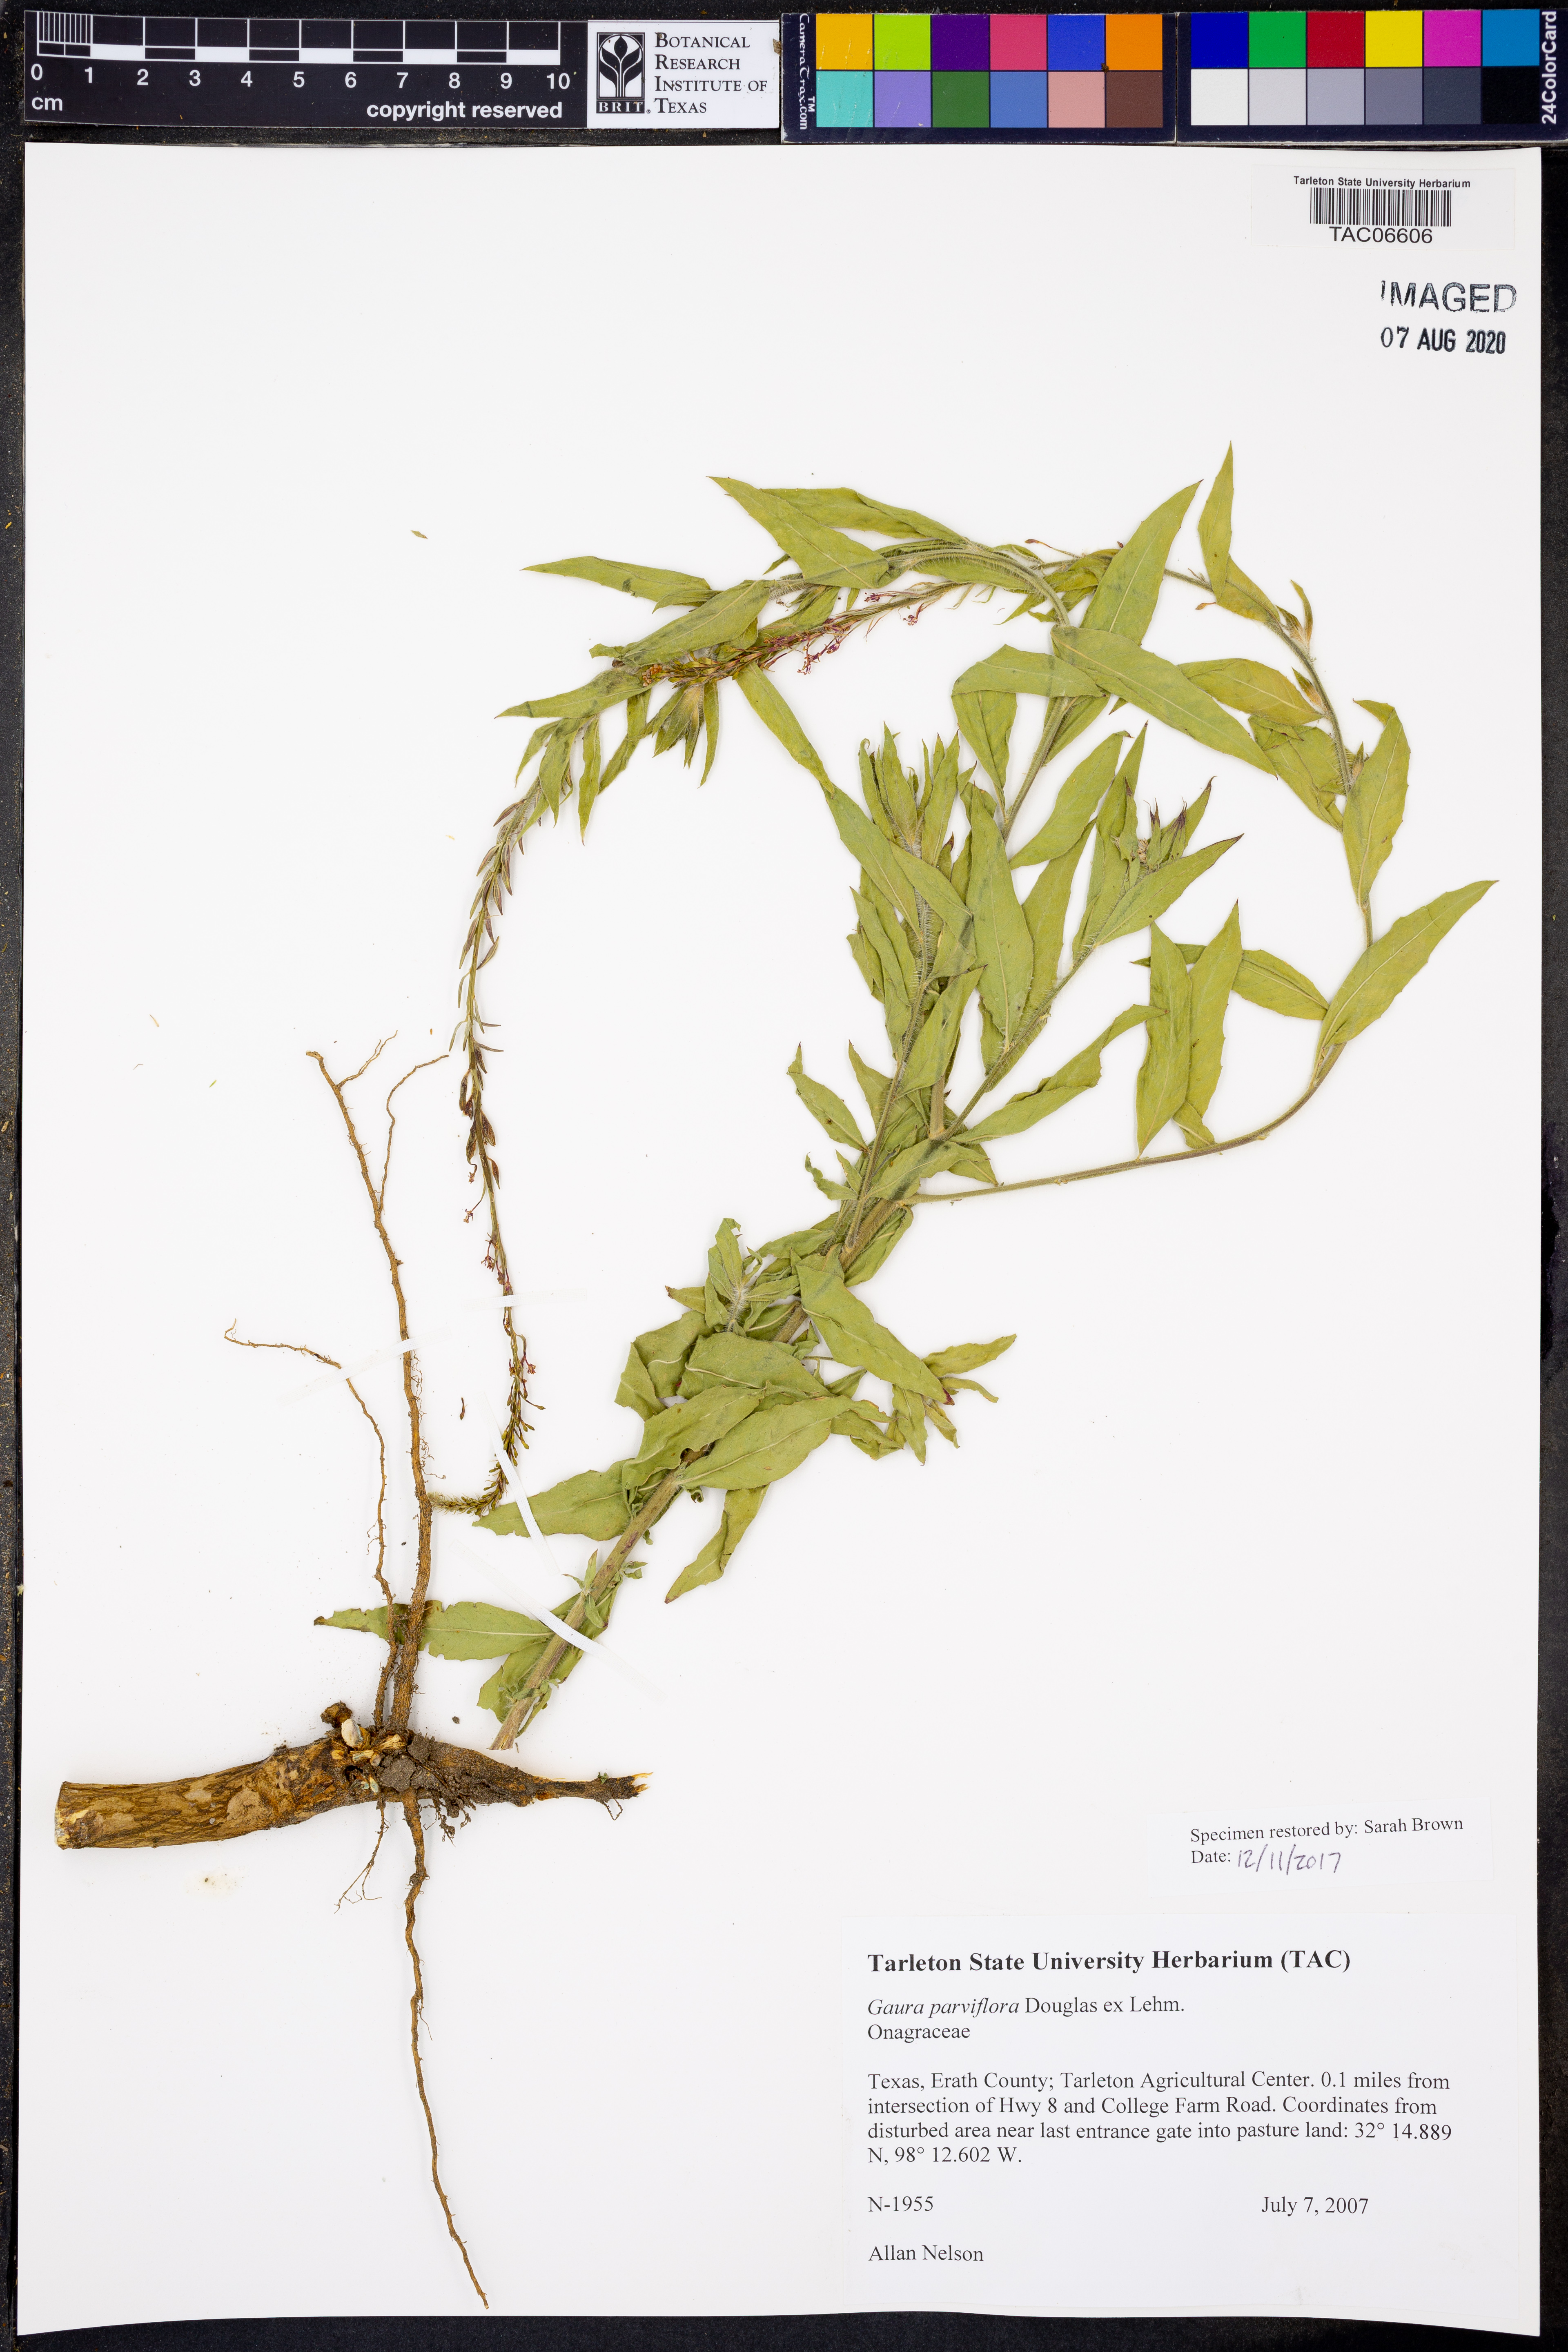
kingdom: Plantae
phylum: Tracheophyta
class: Magnoliopsida
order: Myrtales
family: Onagraceae
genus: Oenothera
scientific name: Oenothera curtiflora
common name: Velvetweed
